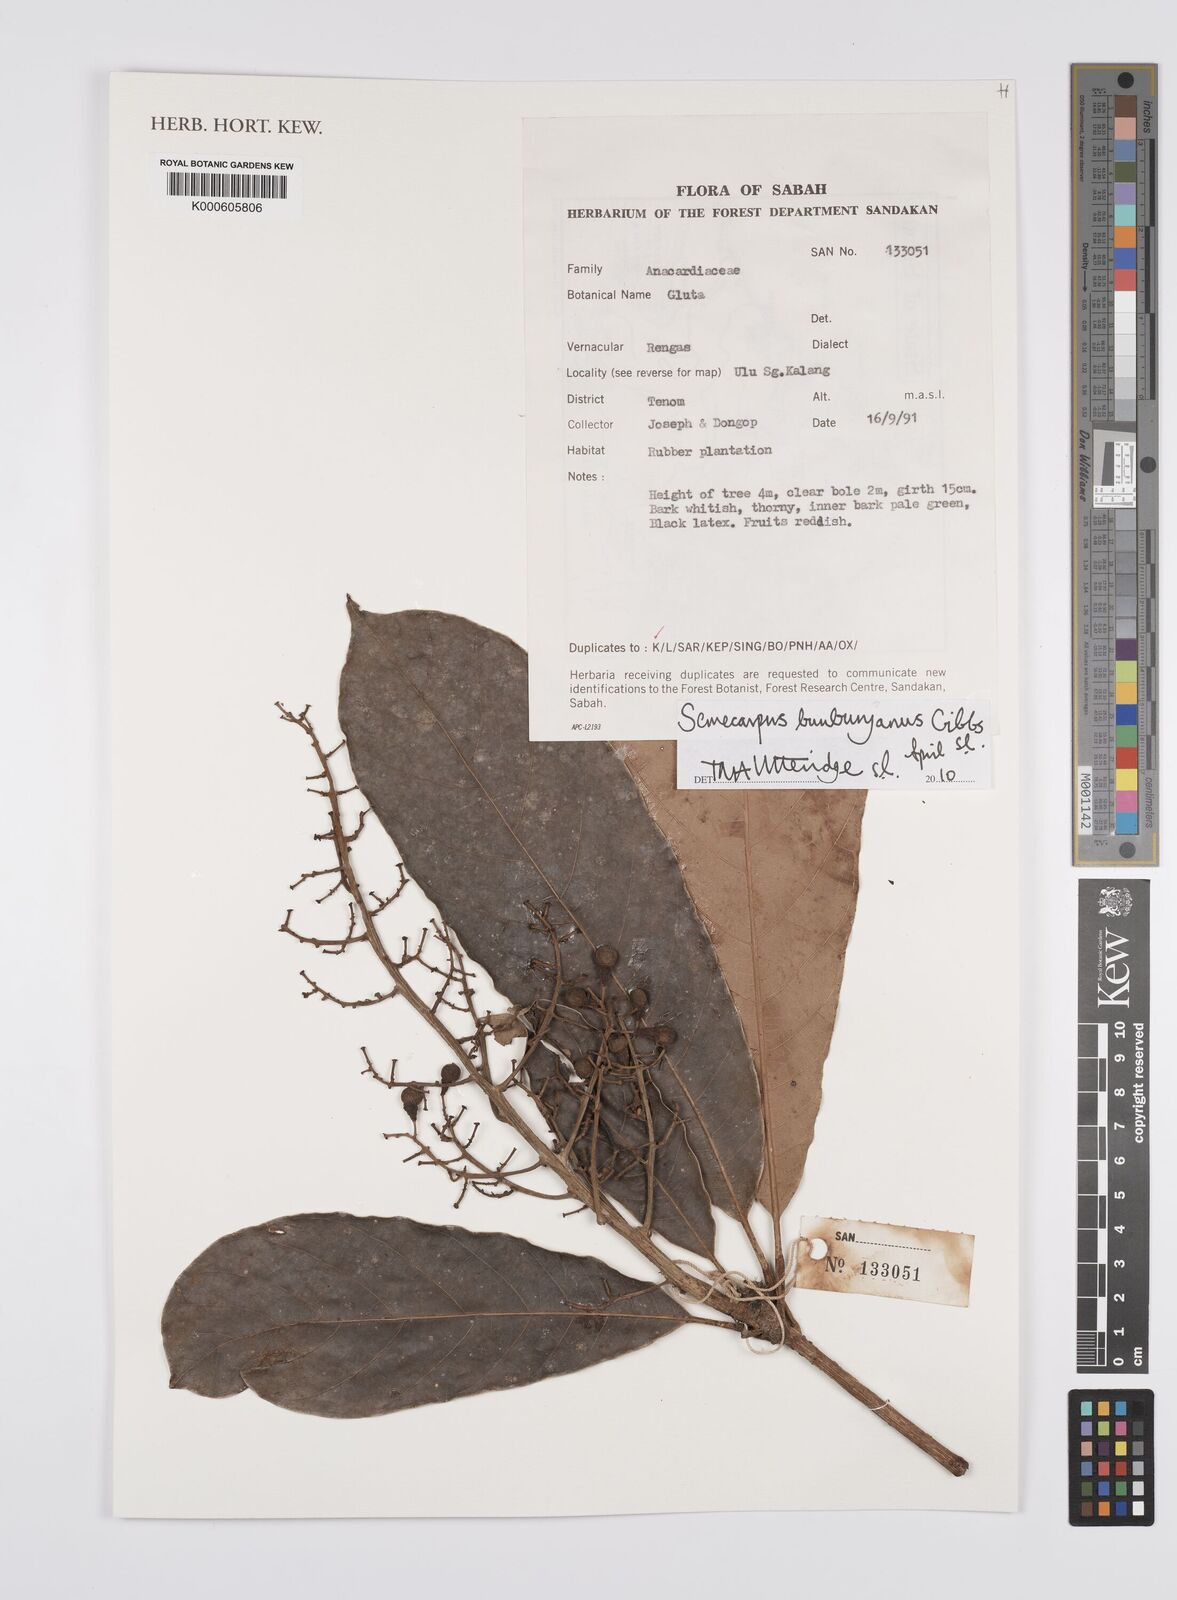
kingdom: Plantae
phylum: Tracheophyta
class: Magnoliopsida
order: Sapindales
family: Anacardiaceae
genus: Semecarpus
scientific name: Semecarpus bunburyanus
